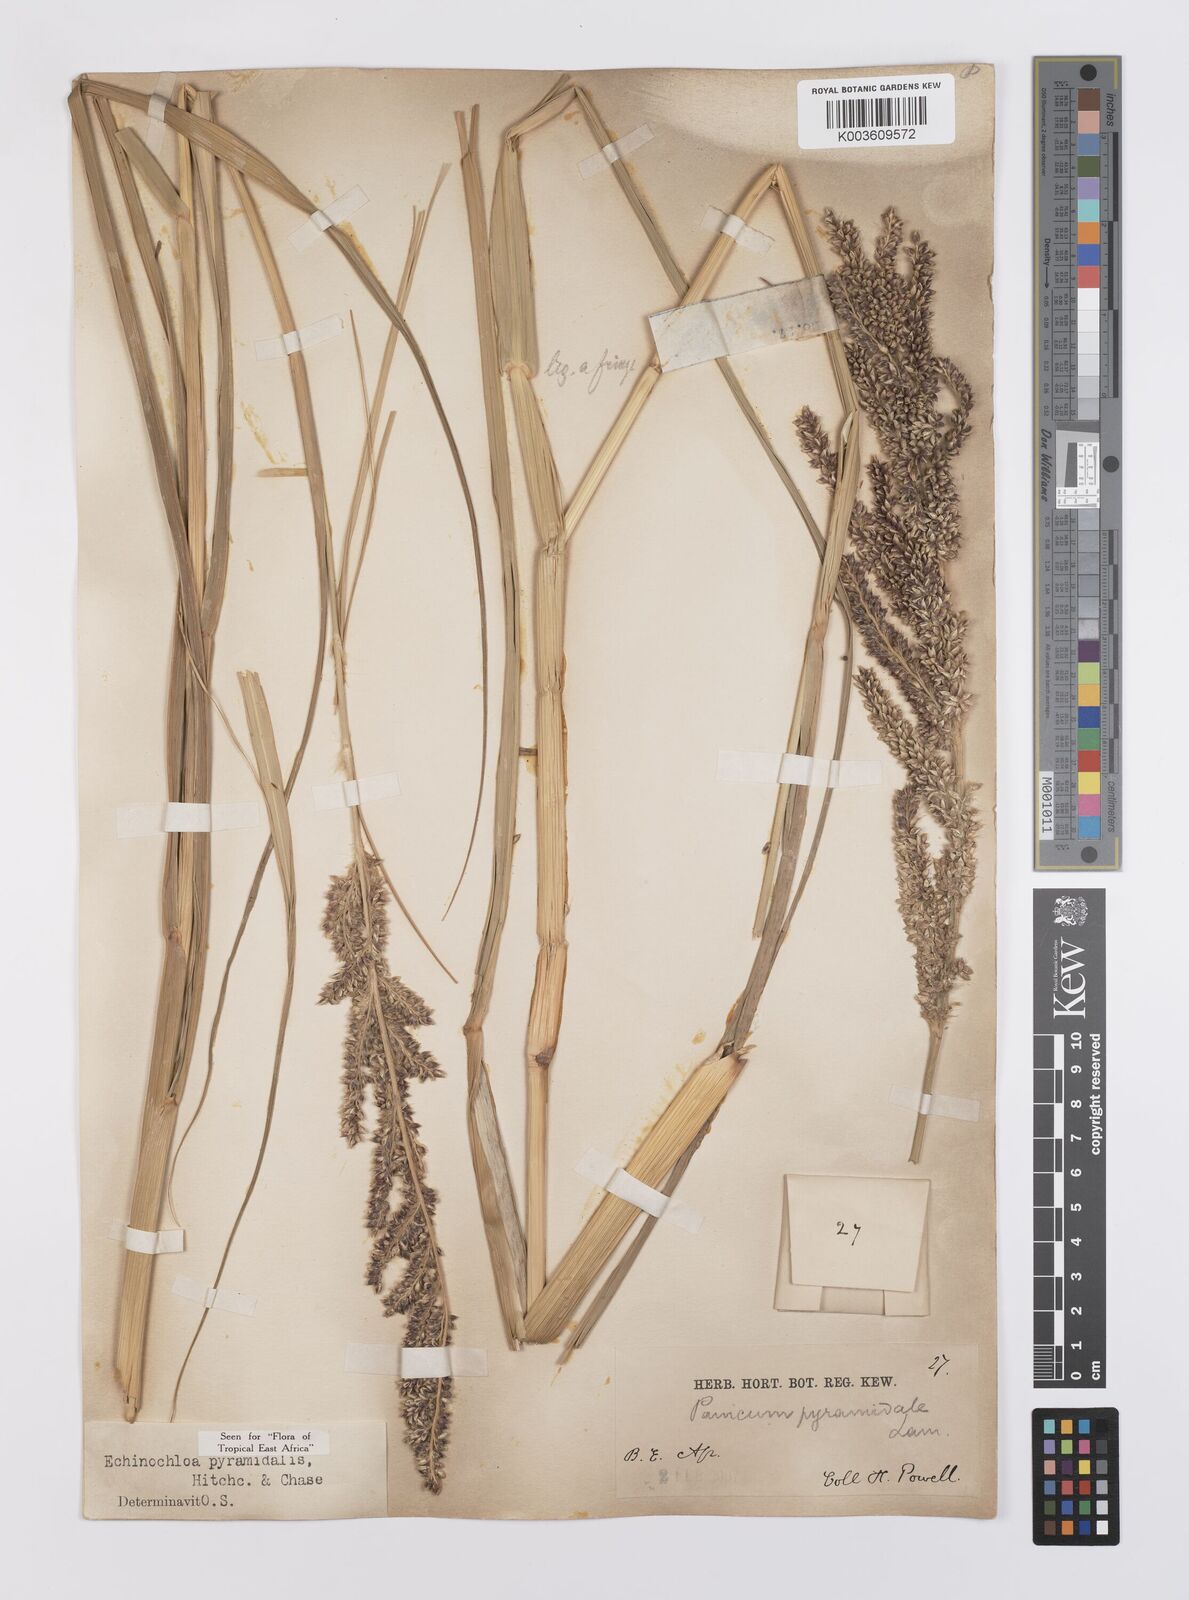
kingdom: Plantae
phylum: Tracheophyta
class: Liliopsida
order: Poales
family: Poaceae
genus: Echinochloa
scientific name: Echinochloa pyramidalis
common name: Antelope grass
